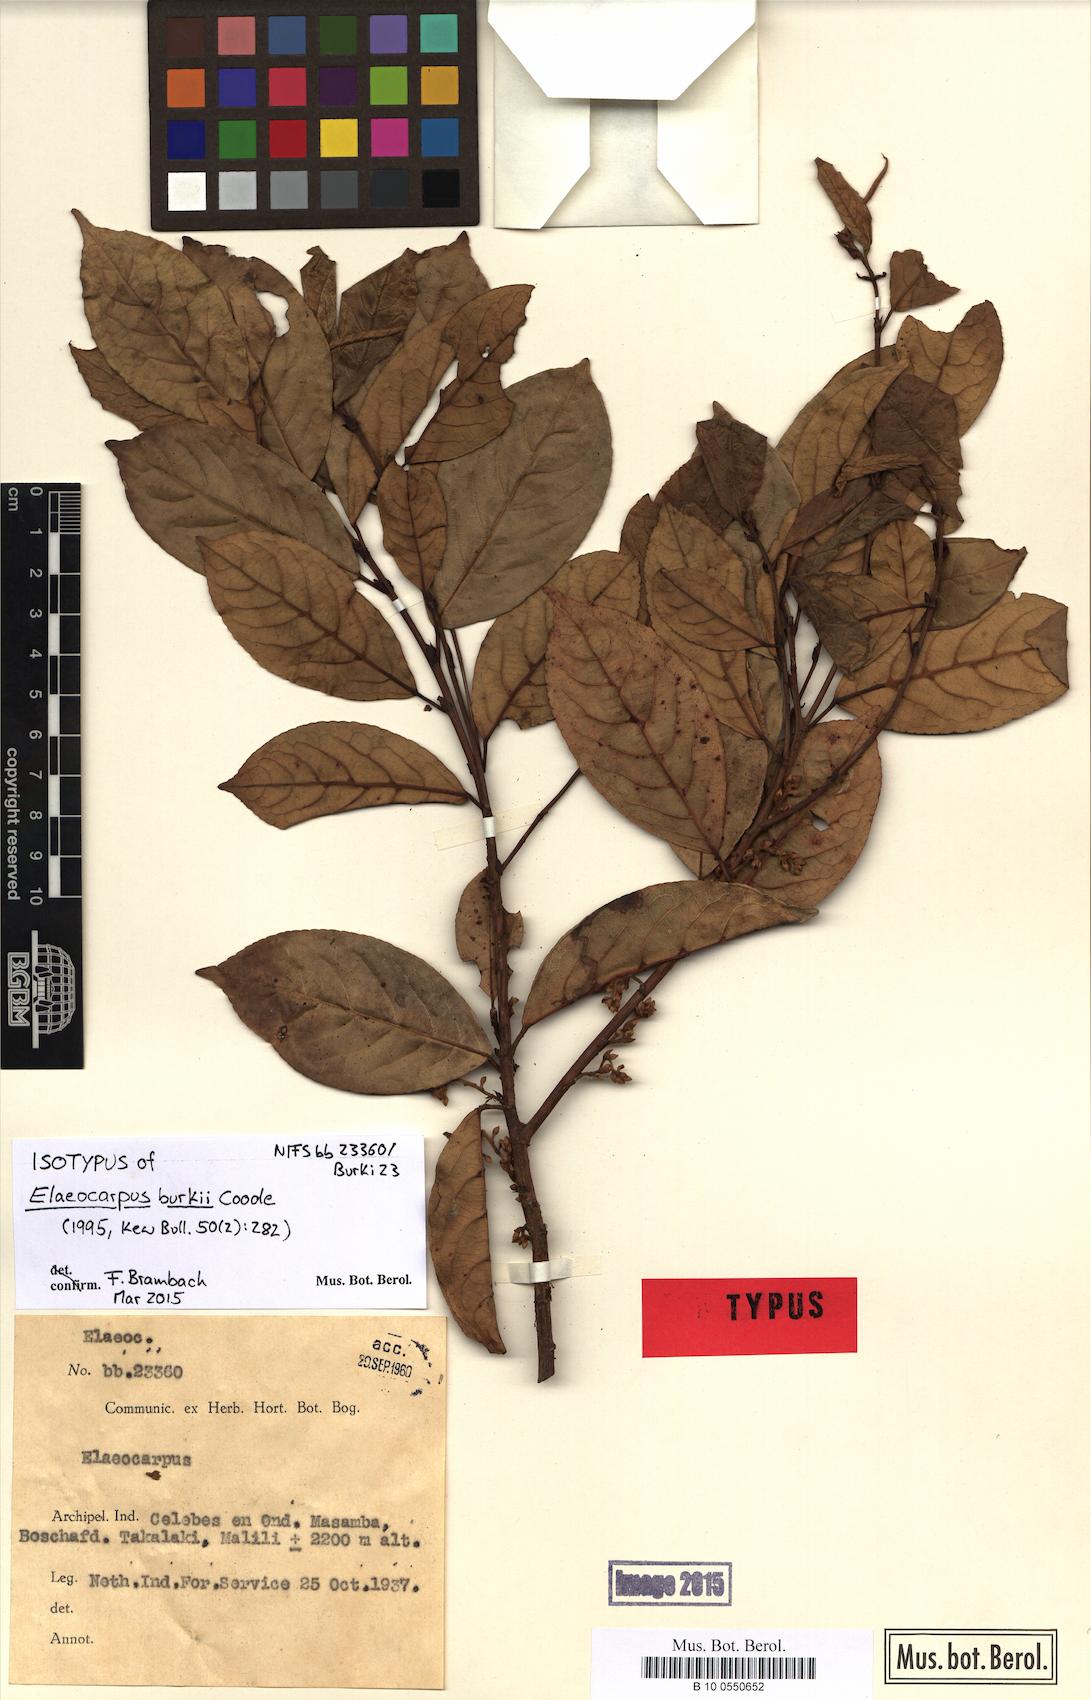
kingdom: Plantae
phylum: Tracheophyta
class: Magnoliopsida
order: Oxalidales
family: Elaeocarpaceae
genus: Elaeocarpus
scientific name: Elaeocarpus burkii
